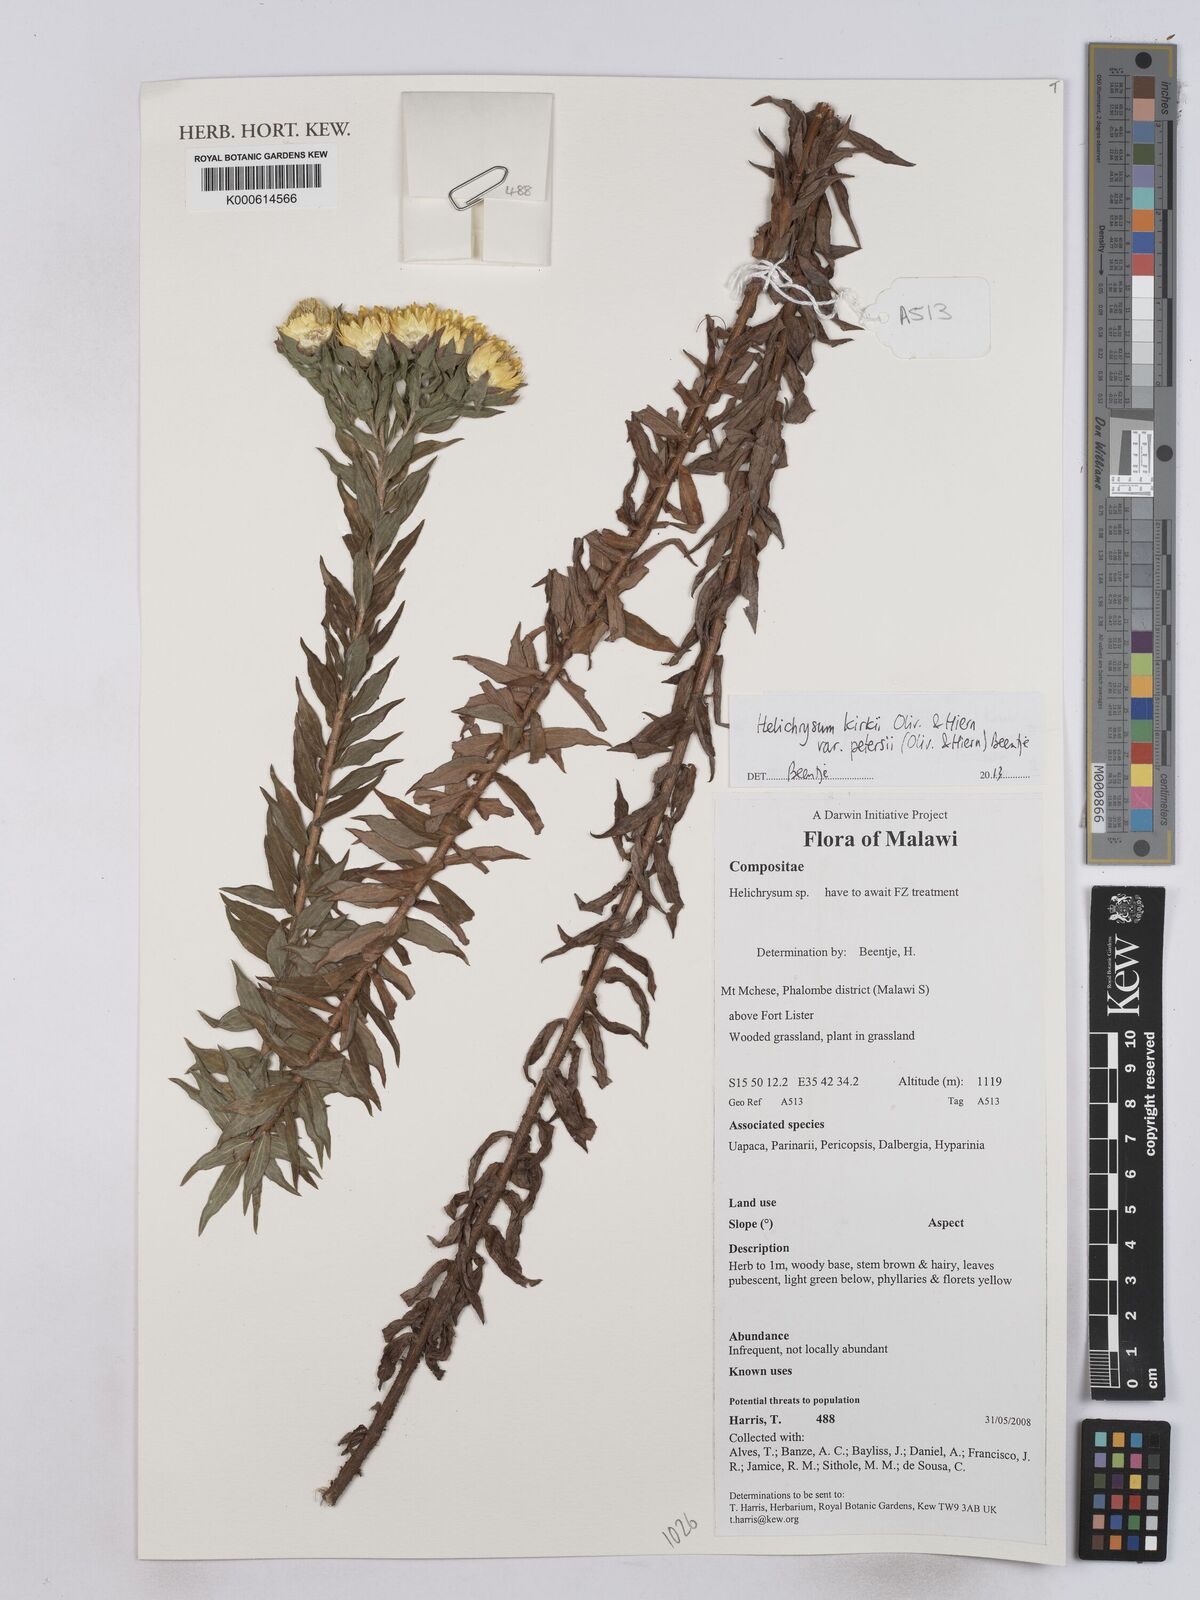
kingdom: Plantae
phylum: Tracheophyta
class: Magnoliopsida
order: Asterales
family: Asteraceae
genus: Helichrysum
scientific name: Helichrysum
